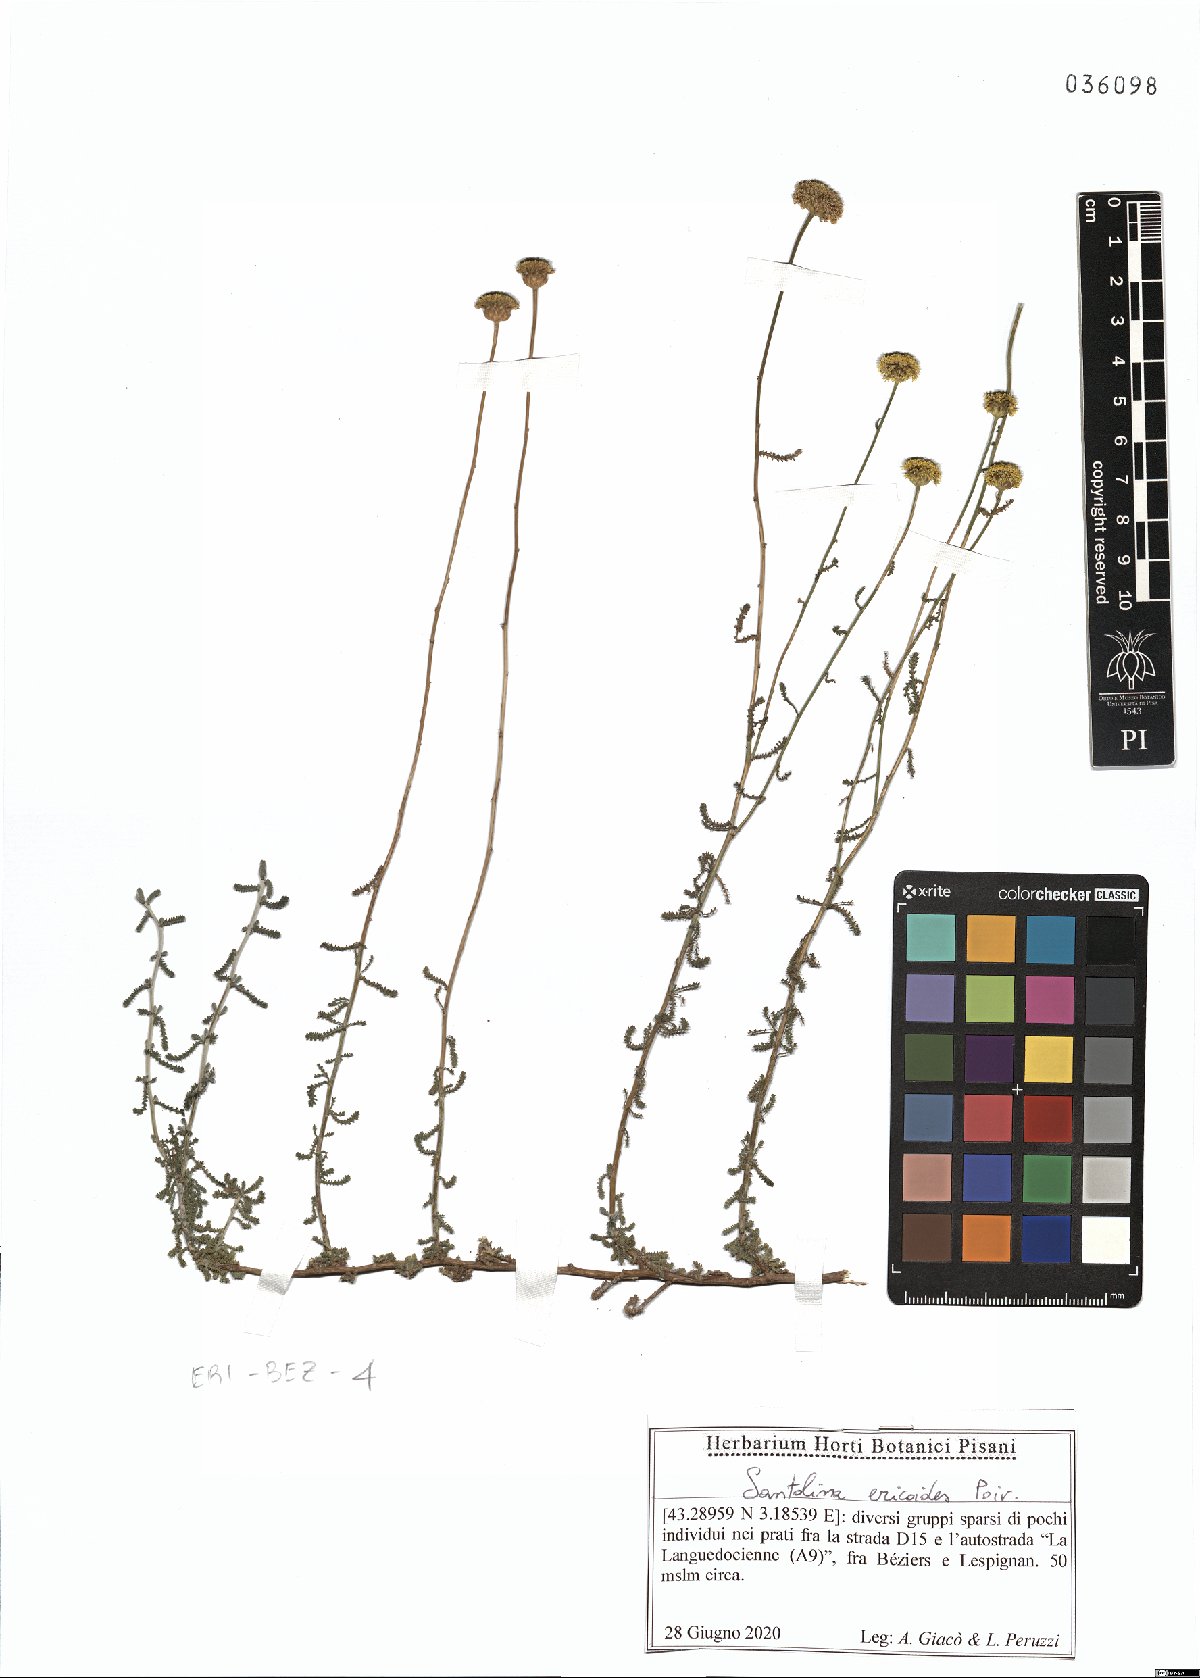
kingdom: Plantae
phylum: Tracheophyta
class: Magnoliopsida
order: Asterales
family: Asteraceae
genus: Santolina
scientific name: Santolina ericoides
